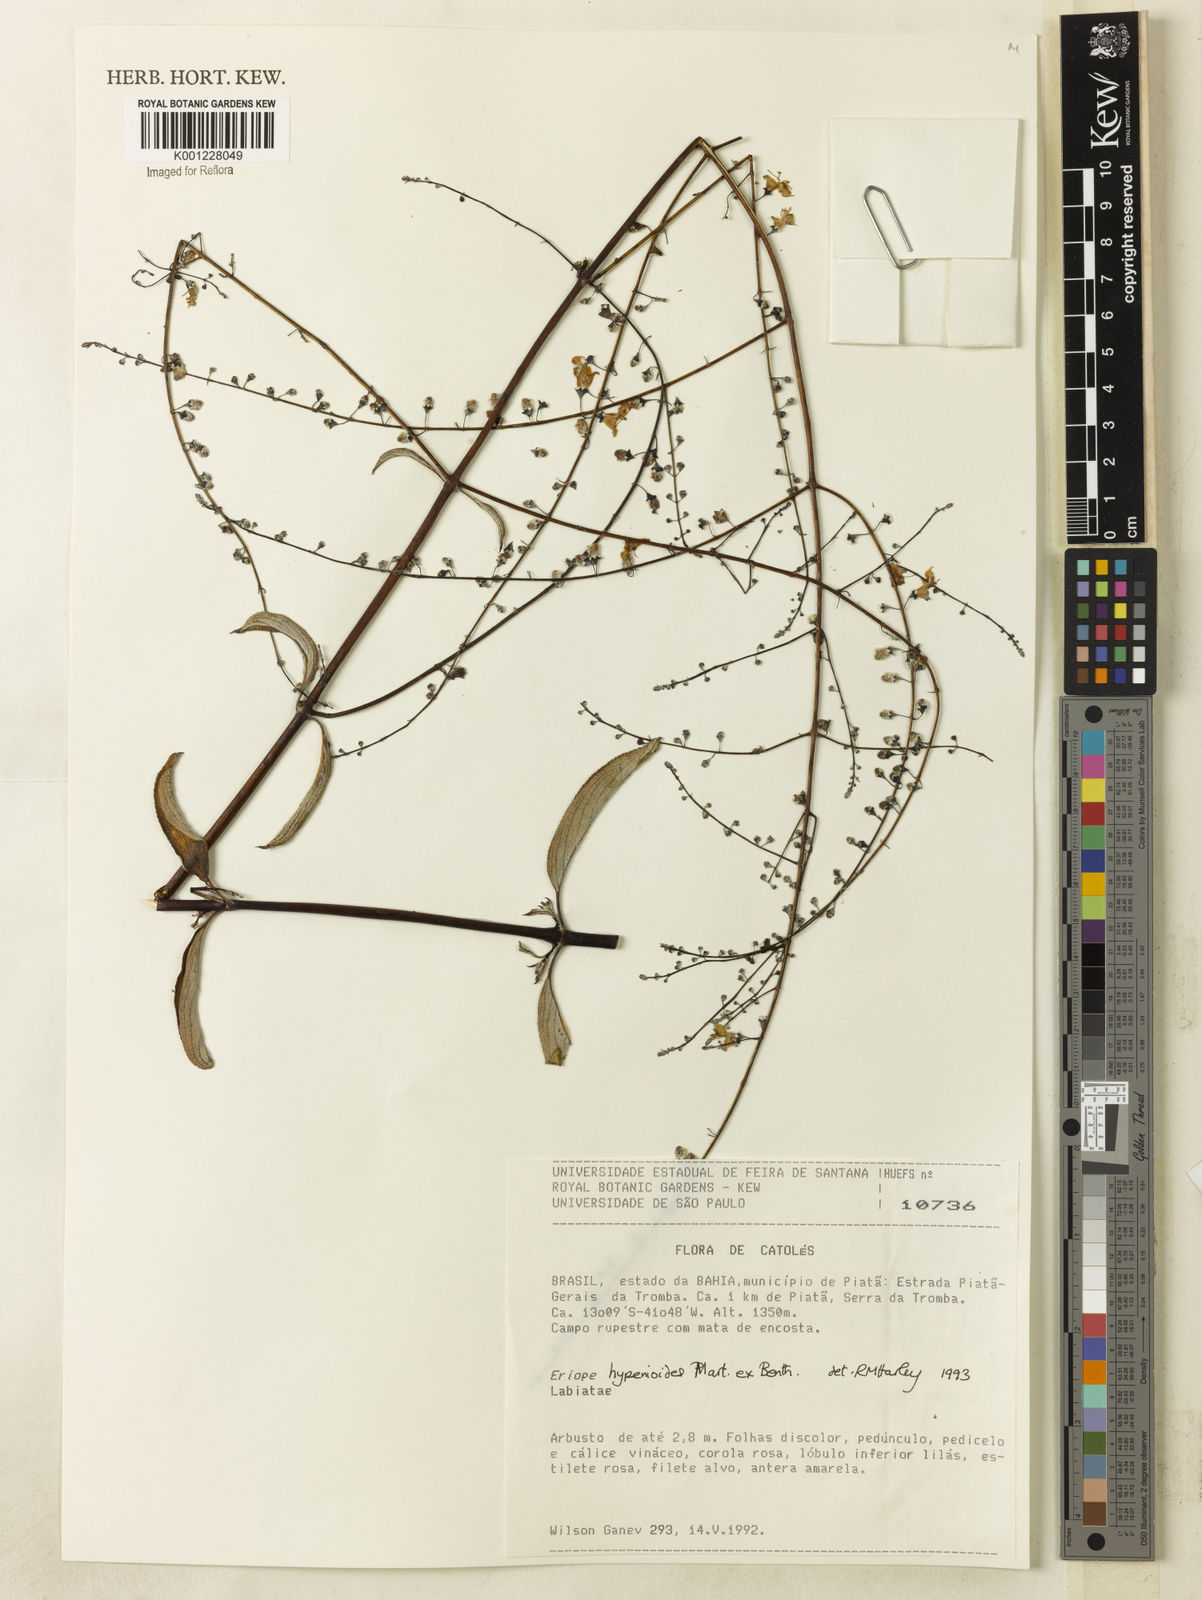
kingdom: Plantae
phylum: Tracheophyta
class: Magnoliopsida
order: Lamiales
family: Lamiaceae
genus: Eriope
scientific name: Eriope hypenioides
